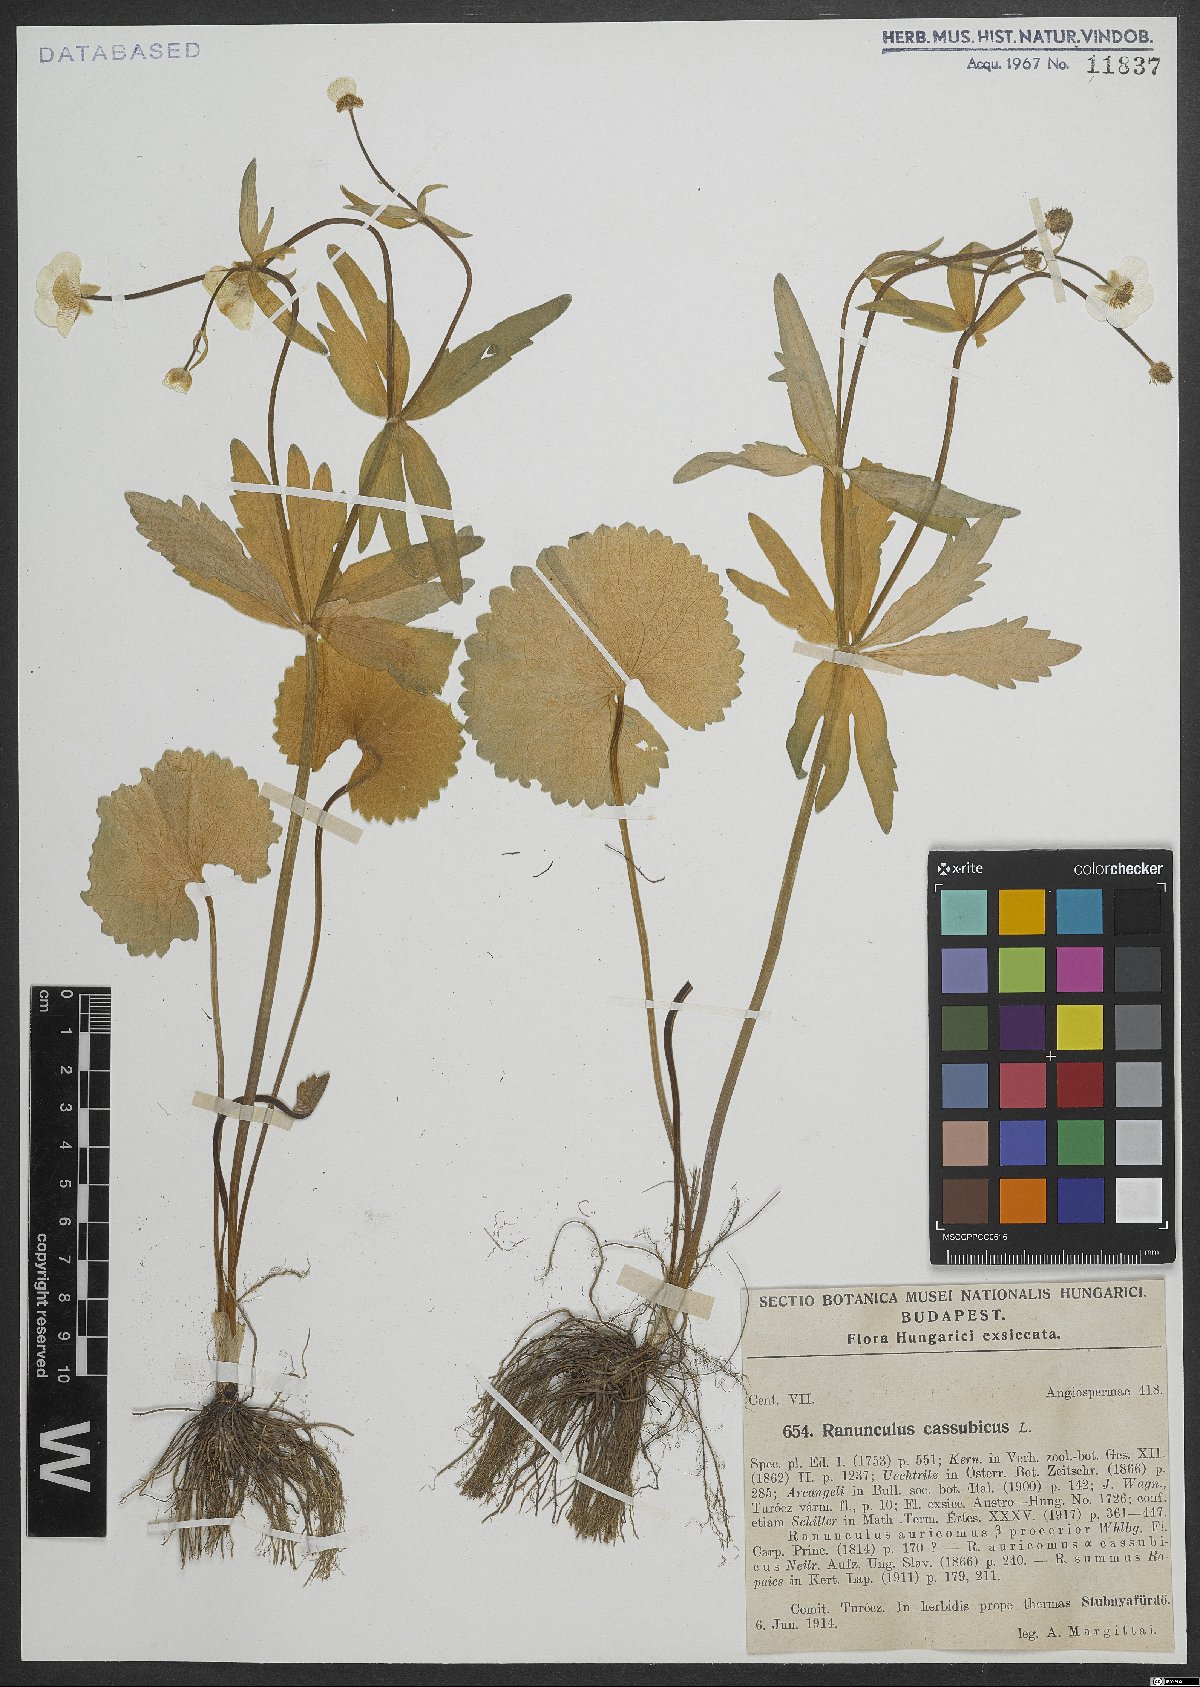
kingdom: Plantae
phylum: Tracheophyta
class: Magnoliopsida
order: Ranunculales
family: Ranunculaceae
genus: Ranunculus
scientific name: Ranunculus cassubicus
